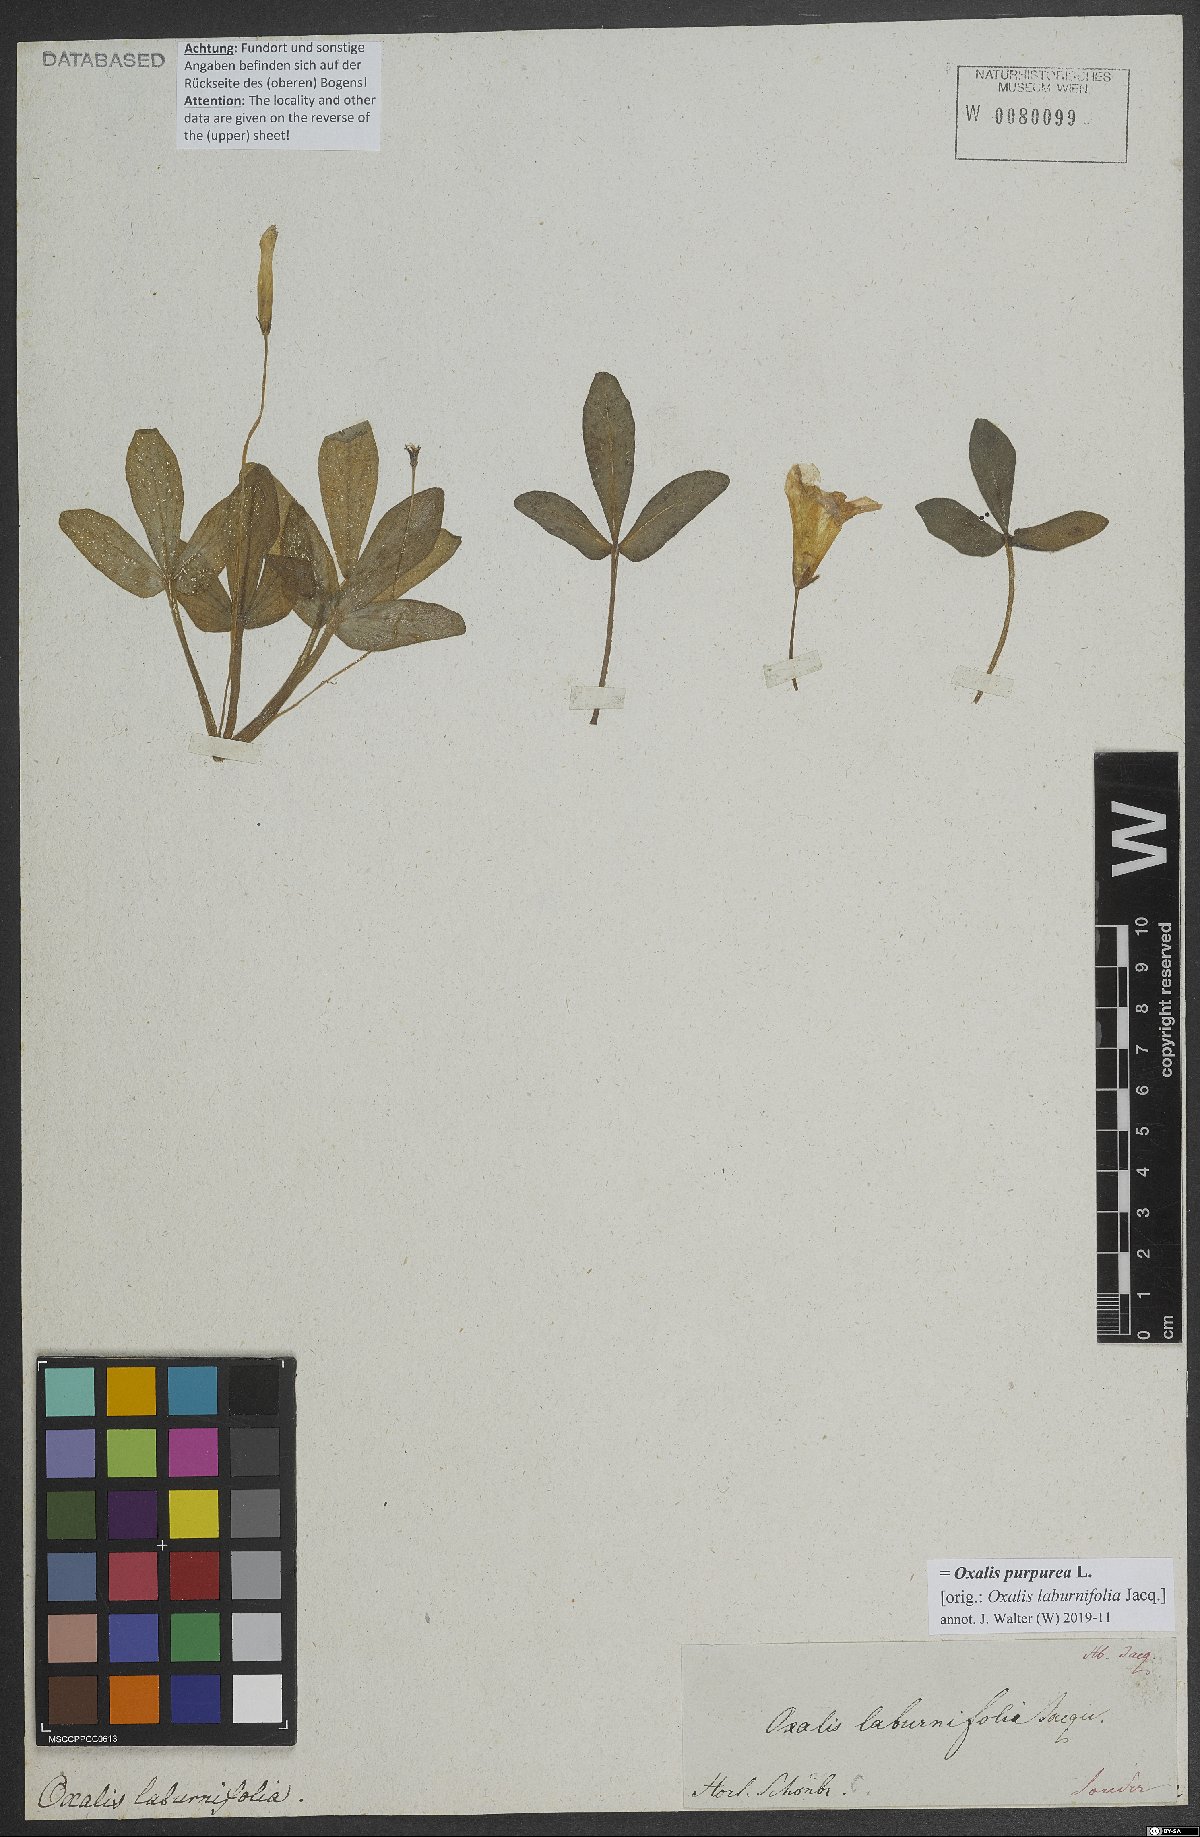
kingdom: Plantae
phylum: Tracheophyta
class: Magnoliopsida
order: Oxalidales
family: Oxalidaceae
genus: Oxalis
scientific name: Oxalis purpurea
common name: Purple woodsorrel
